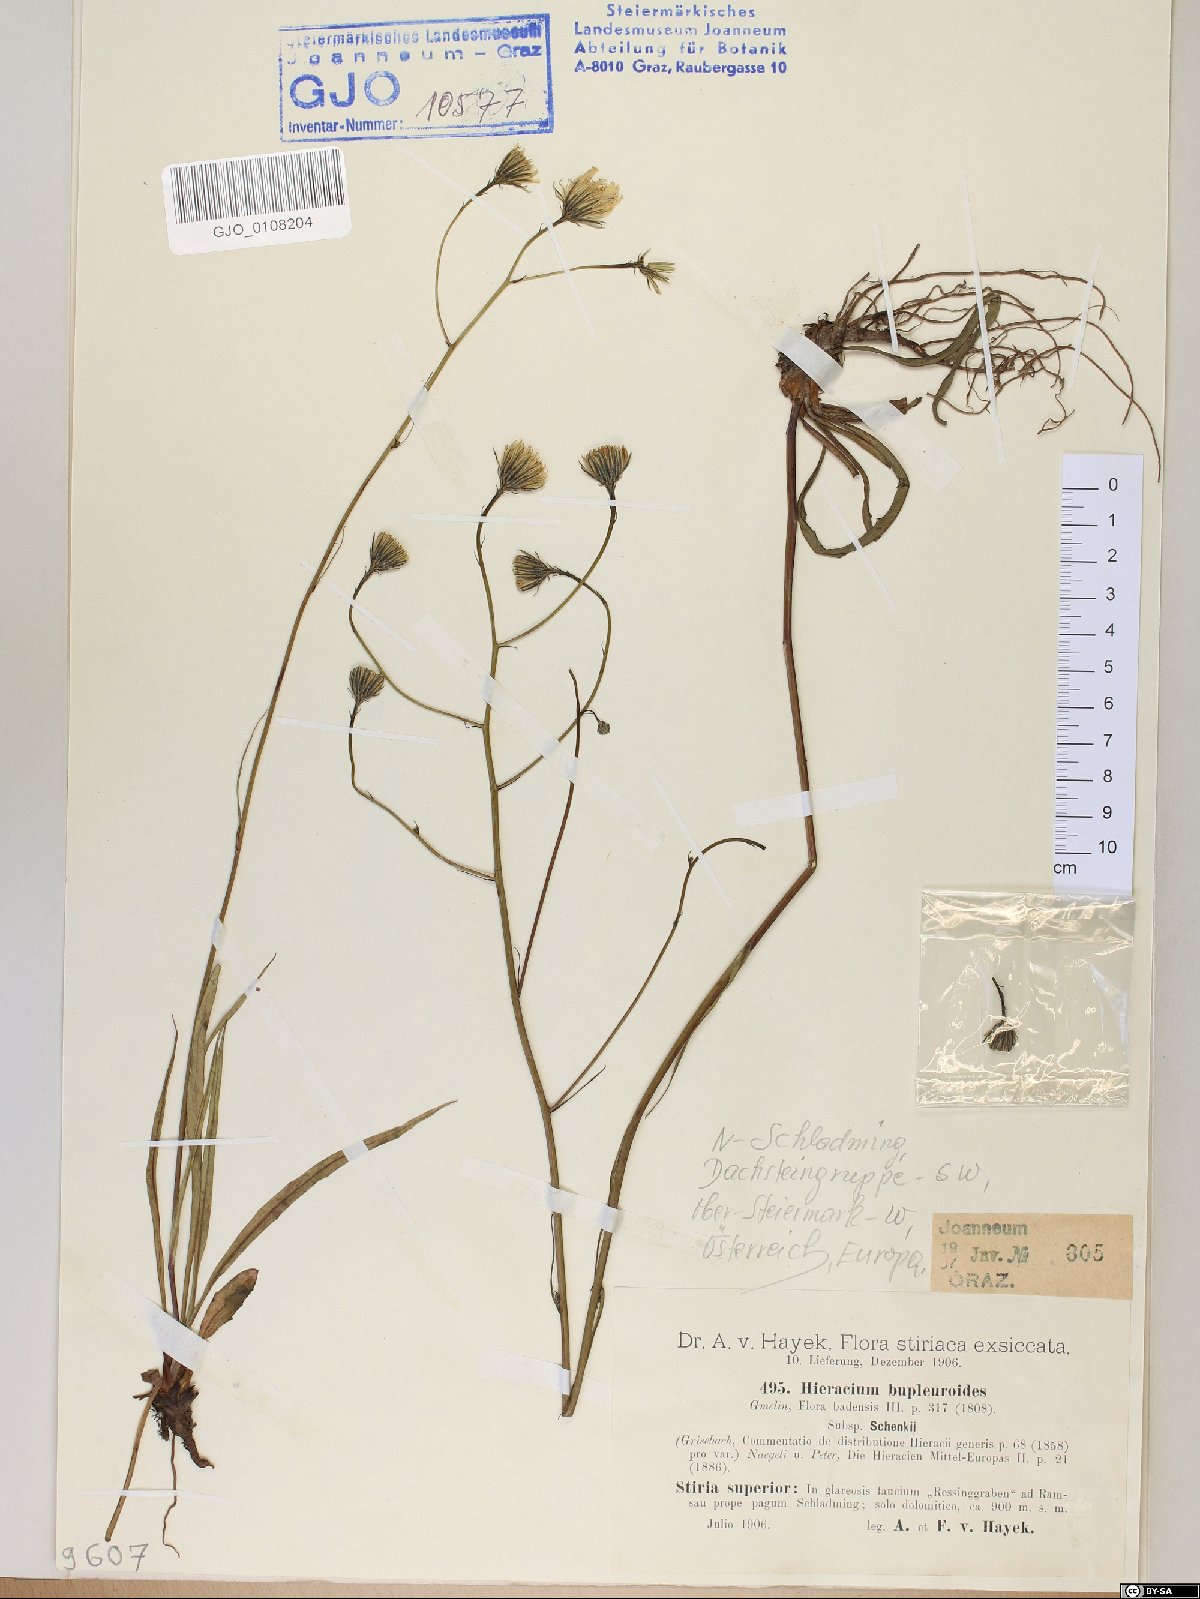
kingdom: Plantae
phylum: Tracheophyta
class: Magnoliopsida
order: Asterales
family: Asteraceae
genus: Hieracium
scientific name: Hieracium bupleuroides
